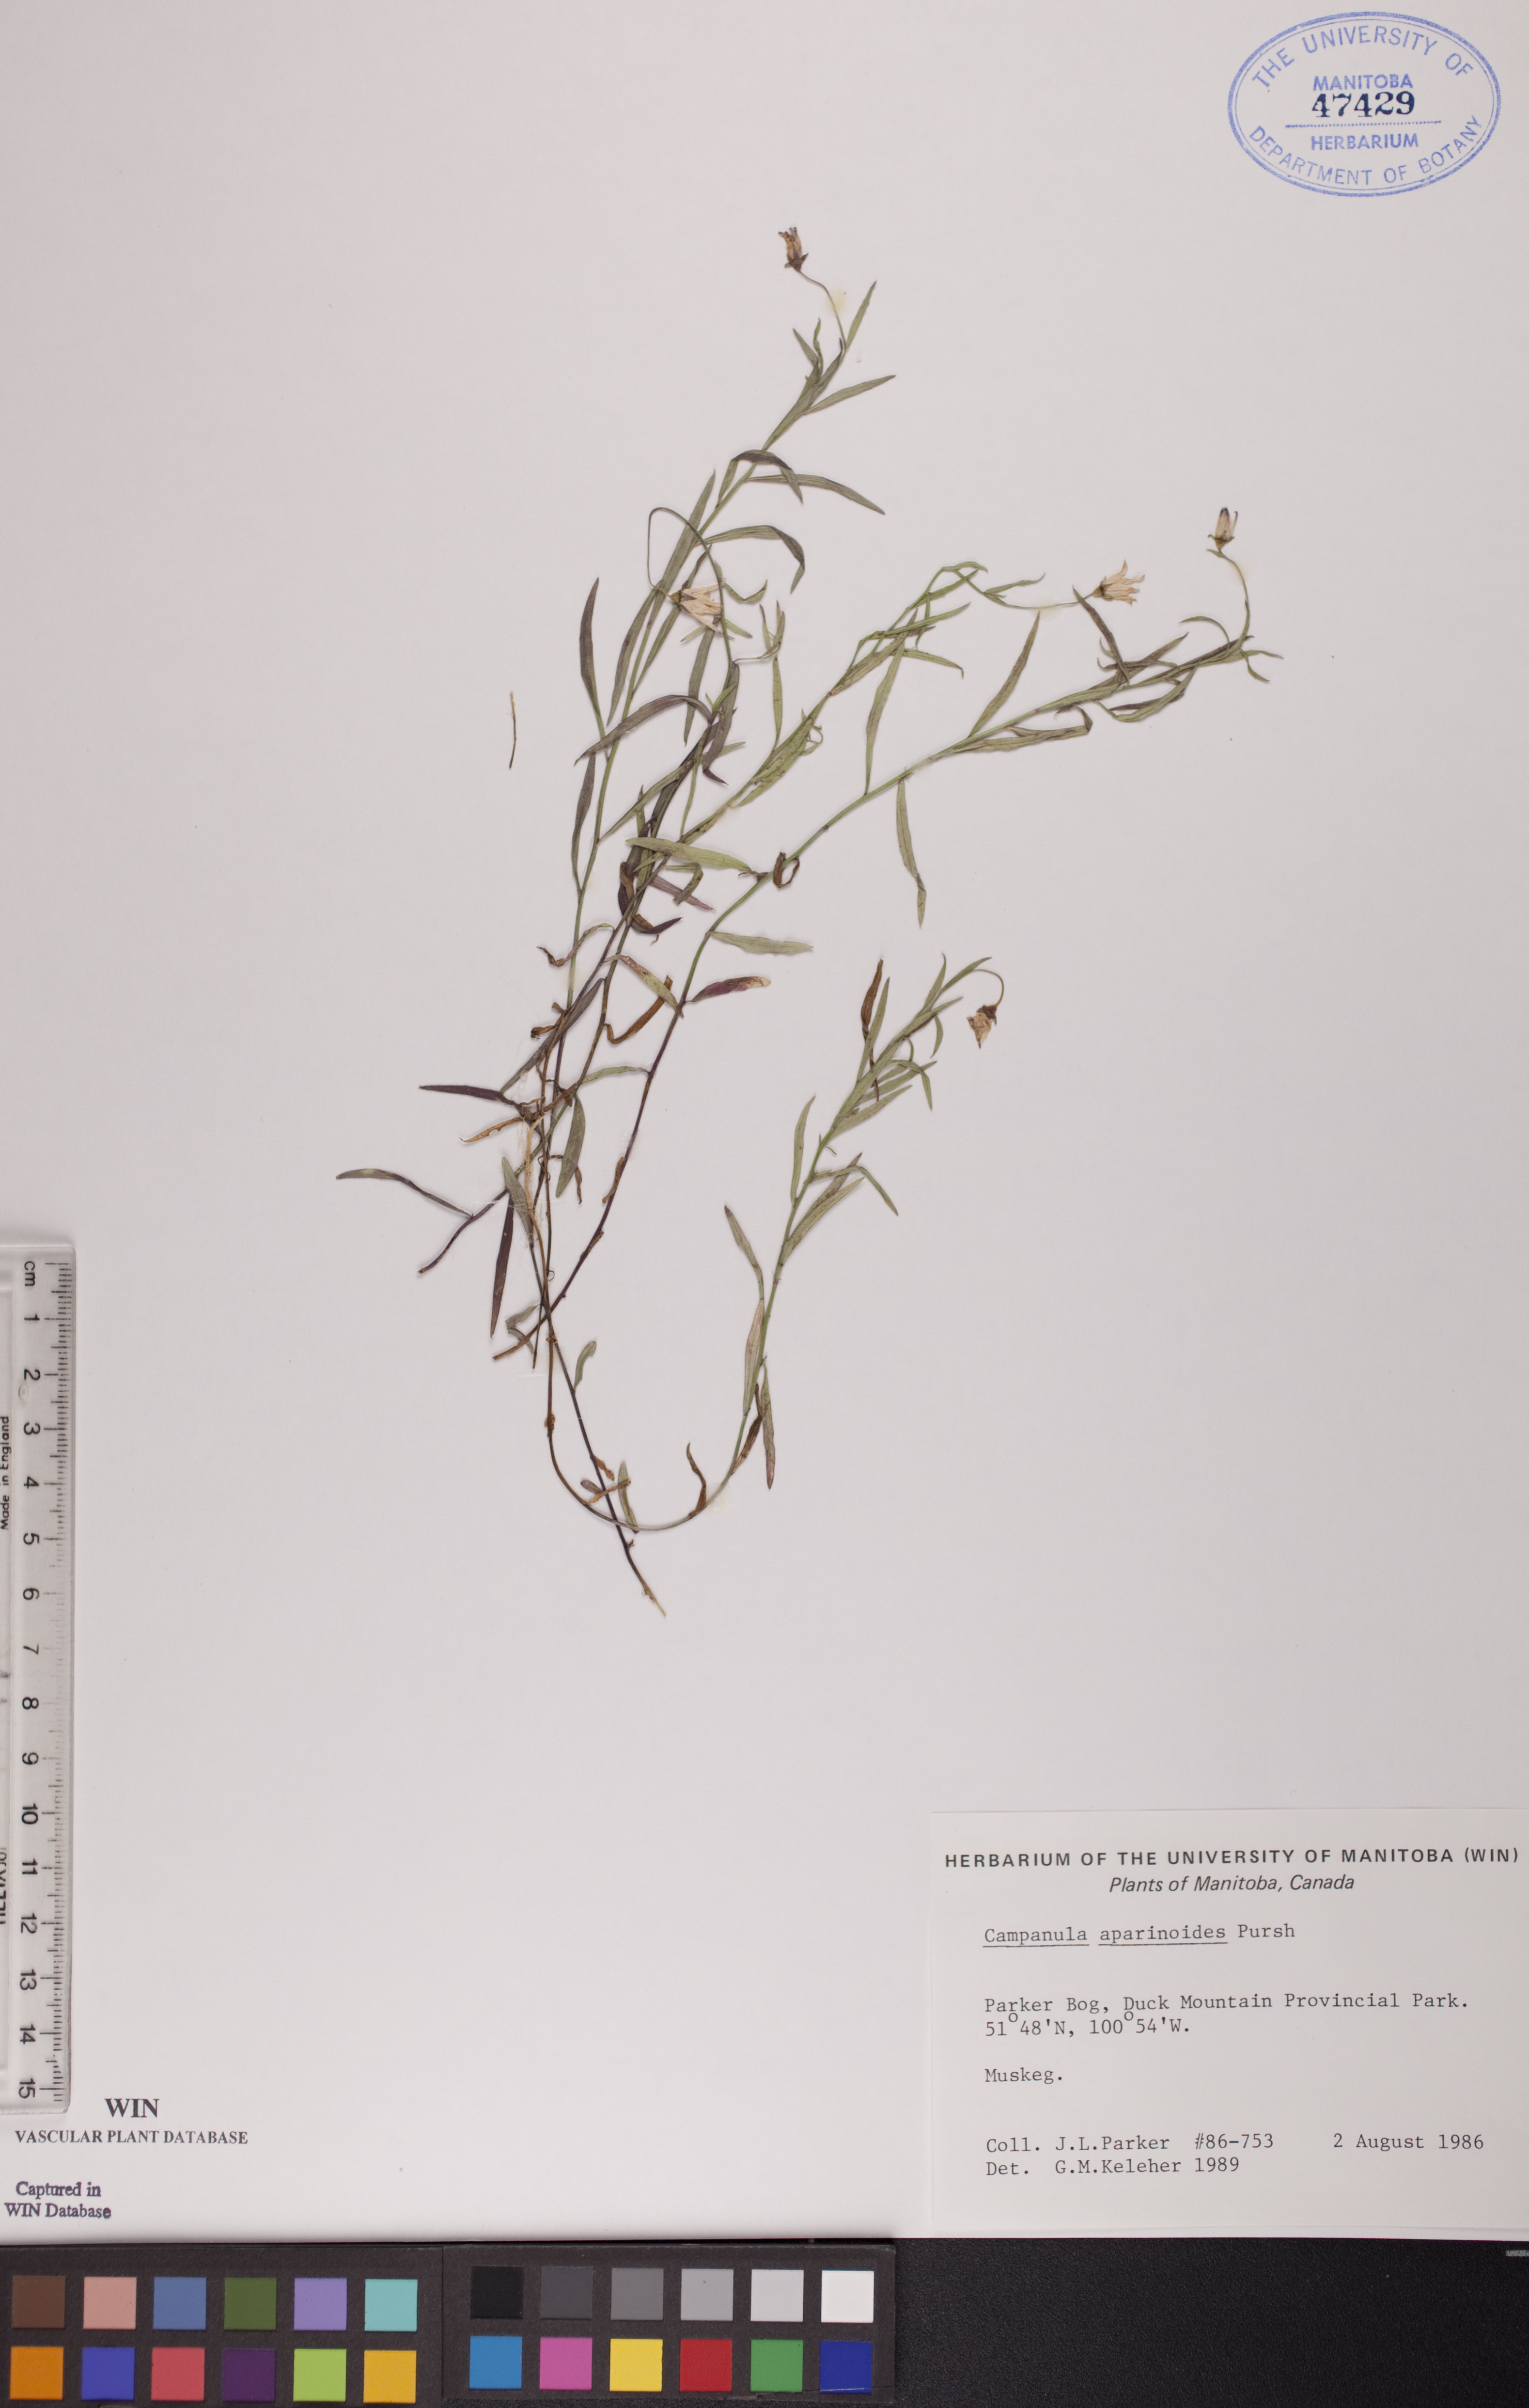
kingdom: Plantae
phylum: Tracheophyta
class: Magnoliopsida
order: Asterales
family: Campanulaceae
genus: Palustricodon
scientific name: Palustricodon aparinoides
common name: Bedstraw bellflower
